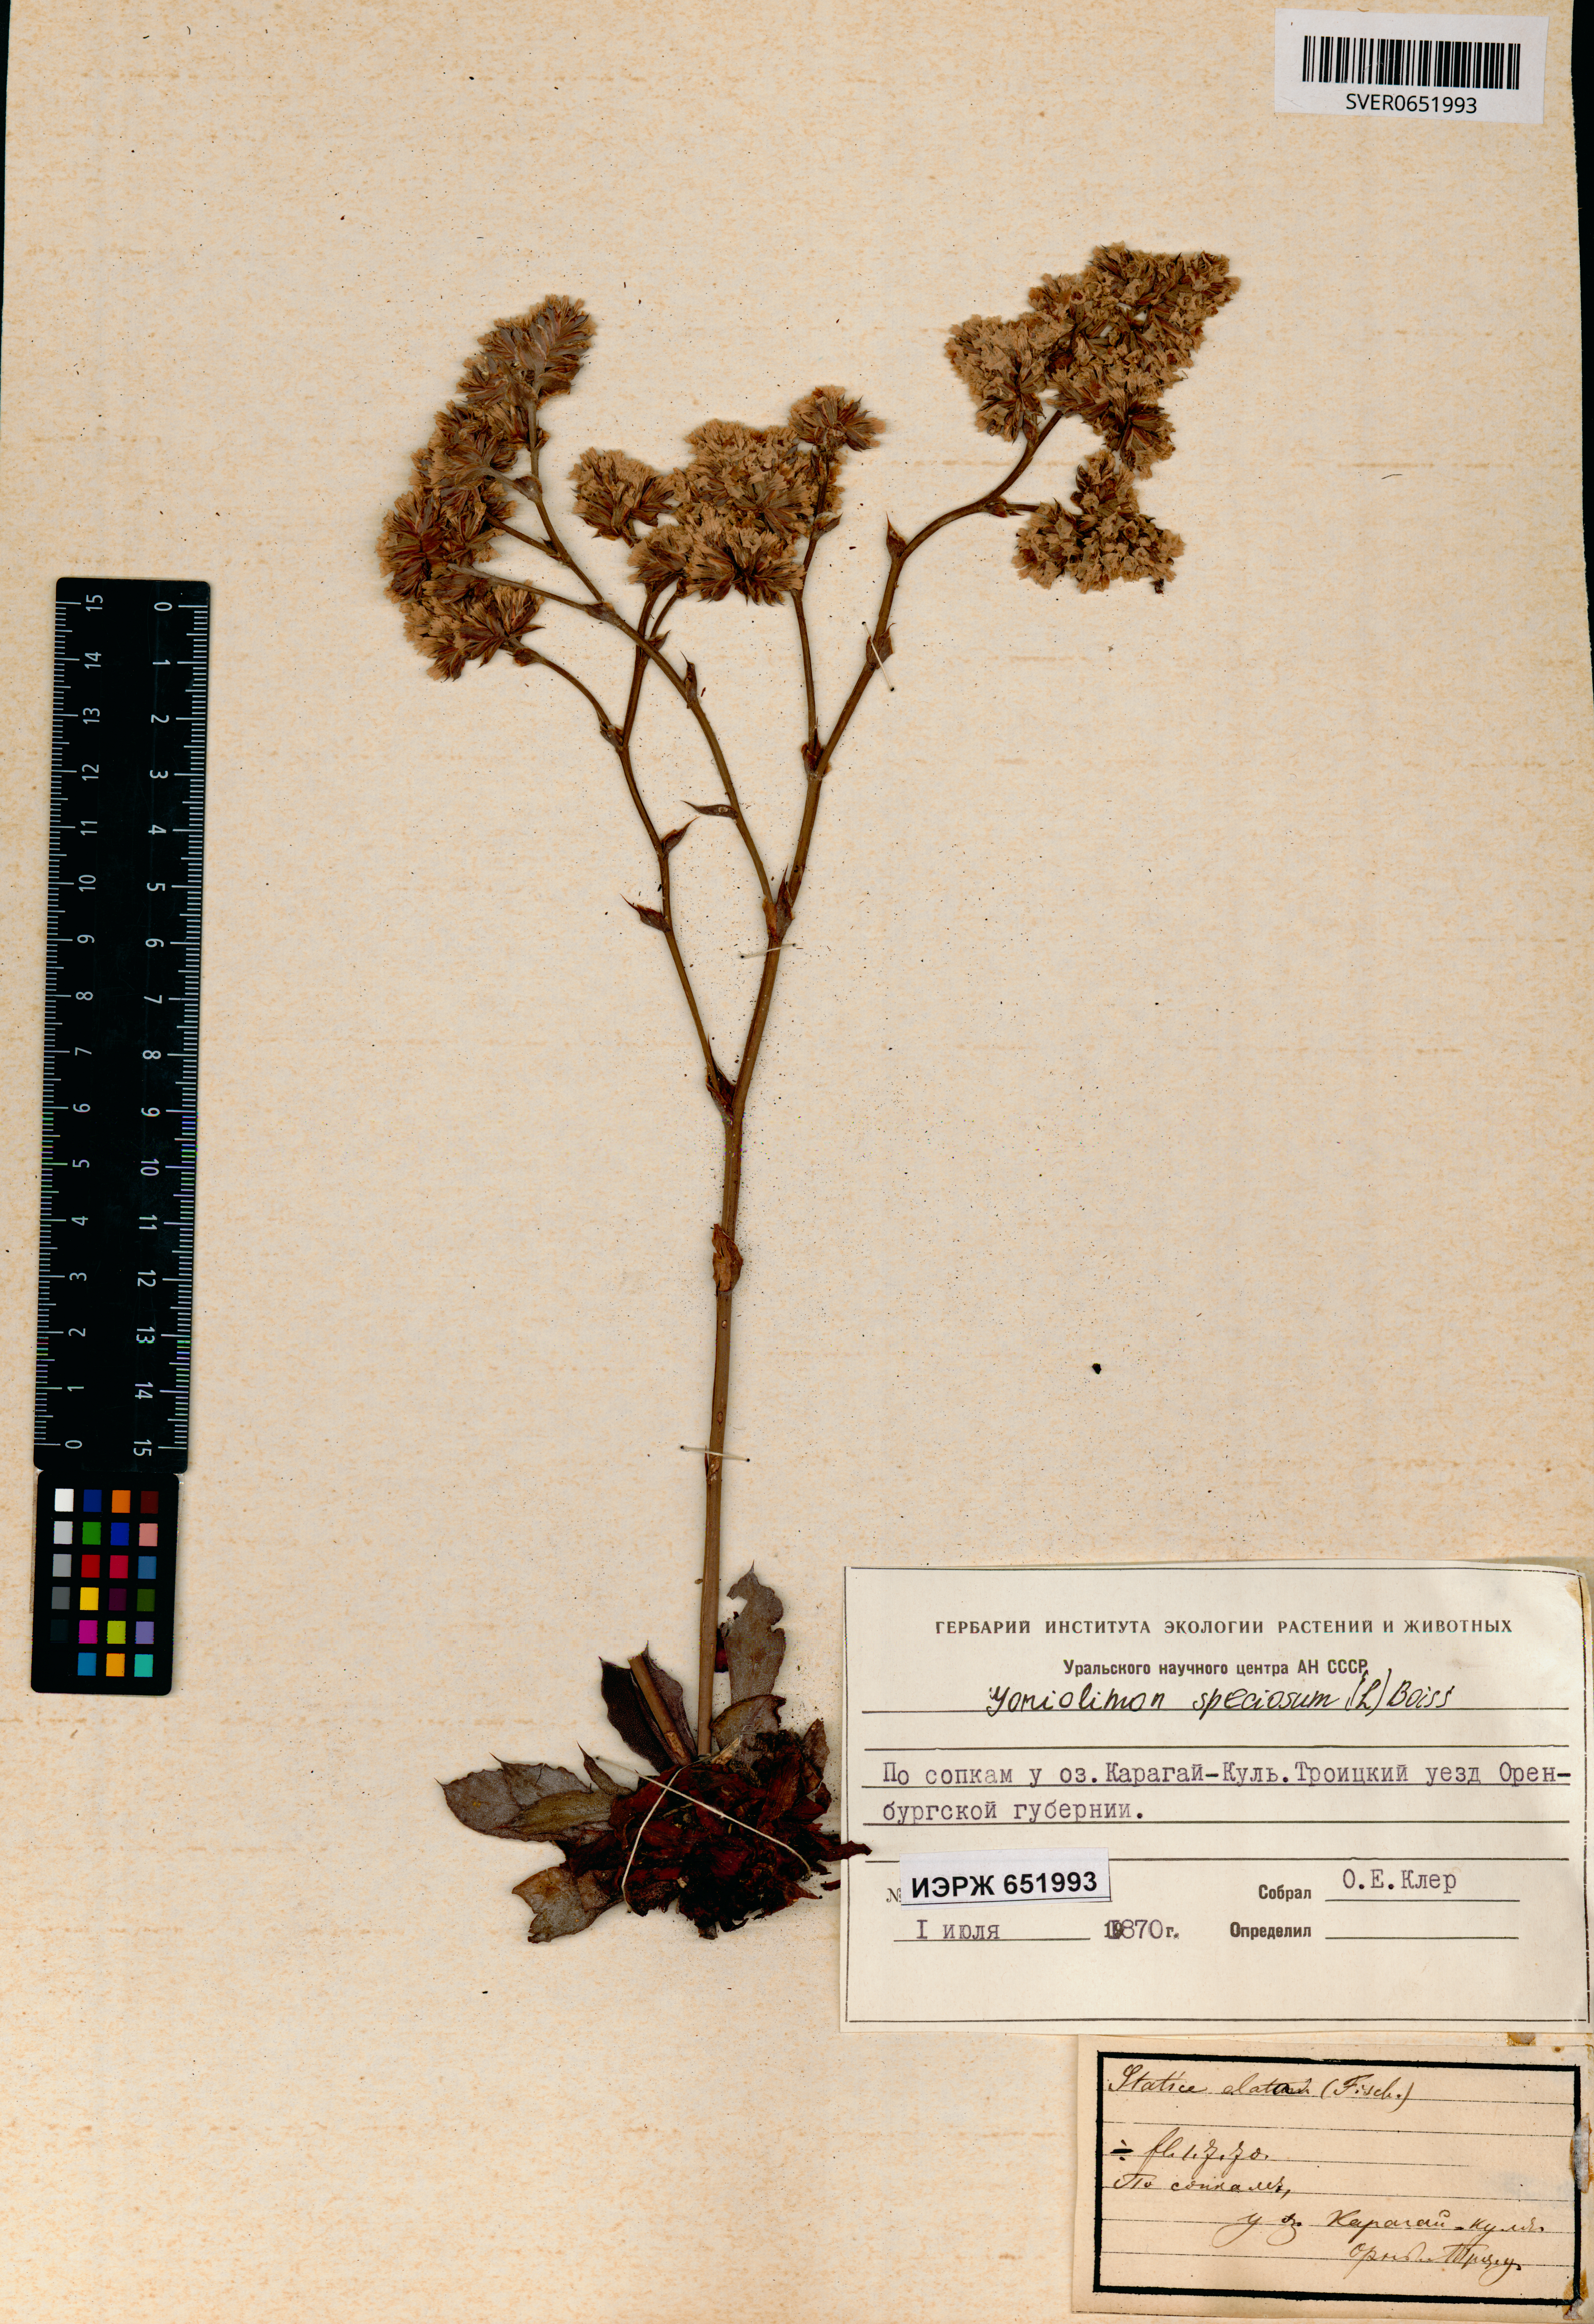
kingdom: Plantae
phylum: Tracheophyta
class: Magnoliopsida
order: Caryophyllales
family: Plumbaginaceae
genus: Goniolimon
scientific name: Goniolimon speciosum
